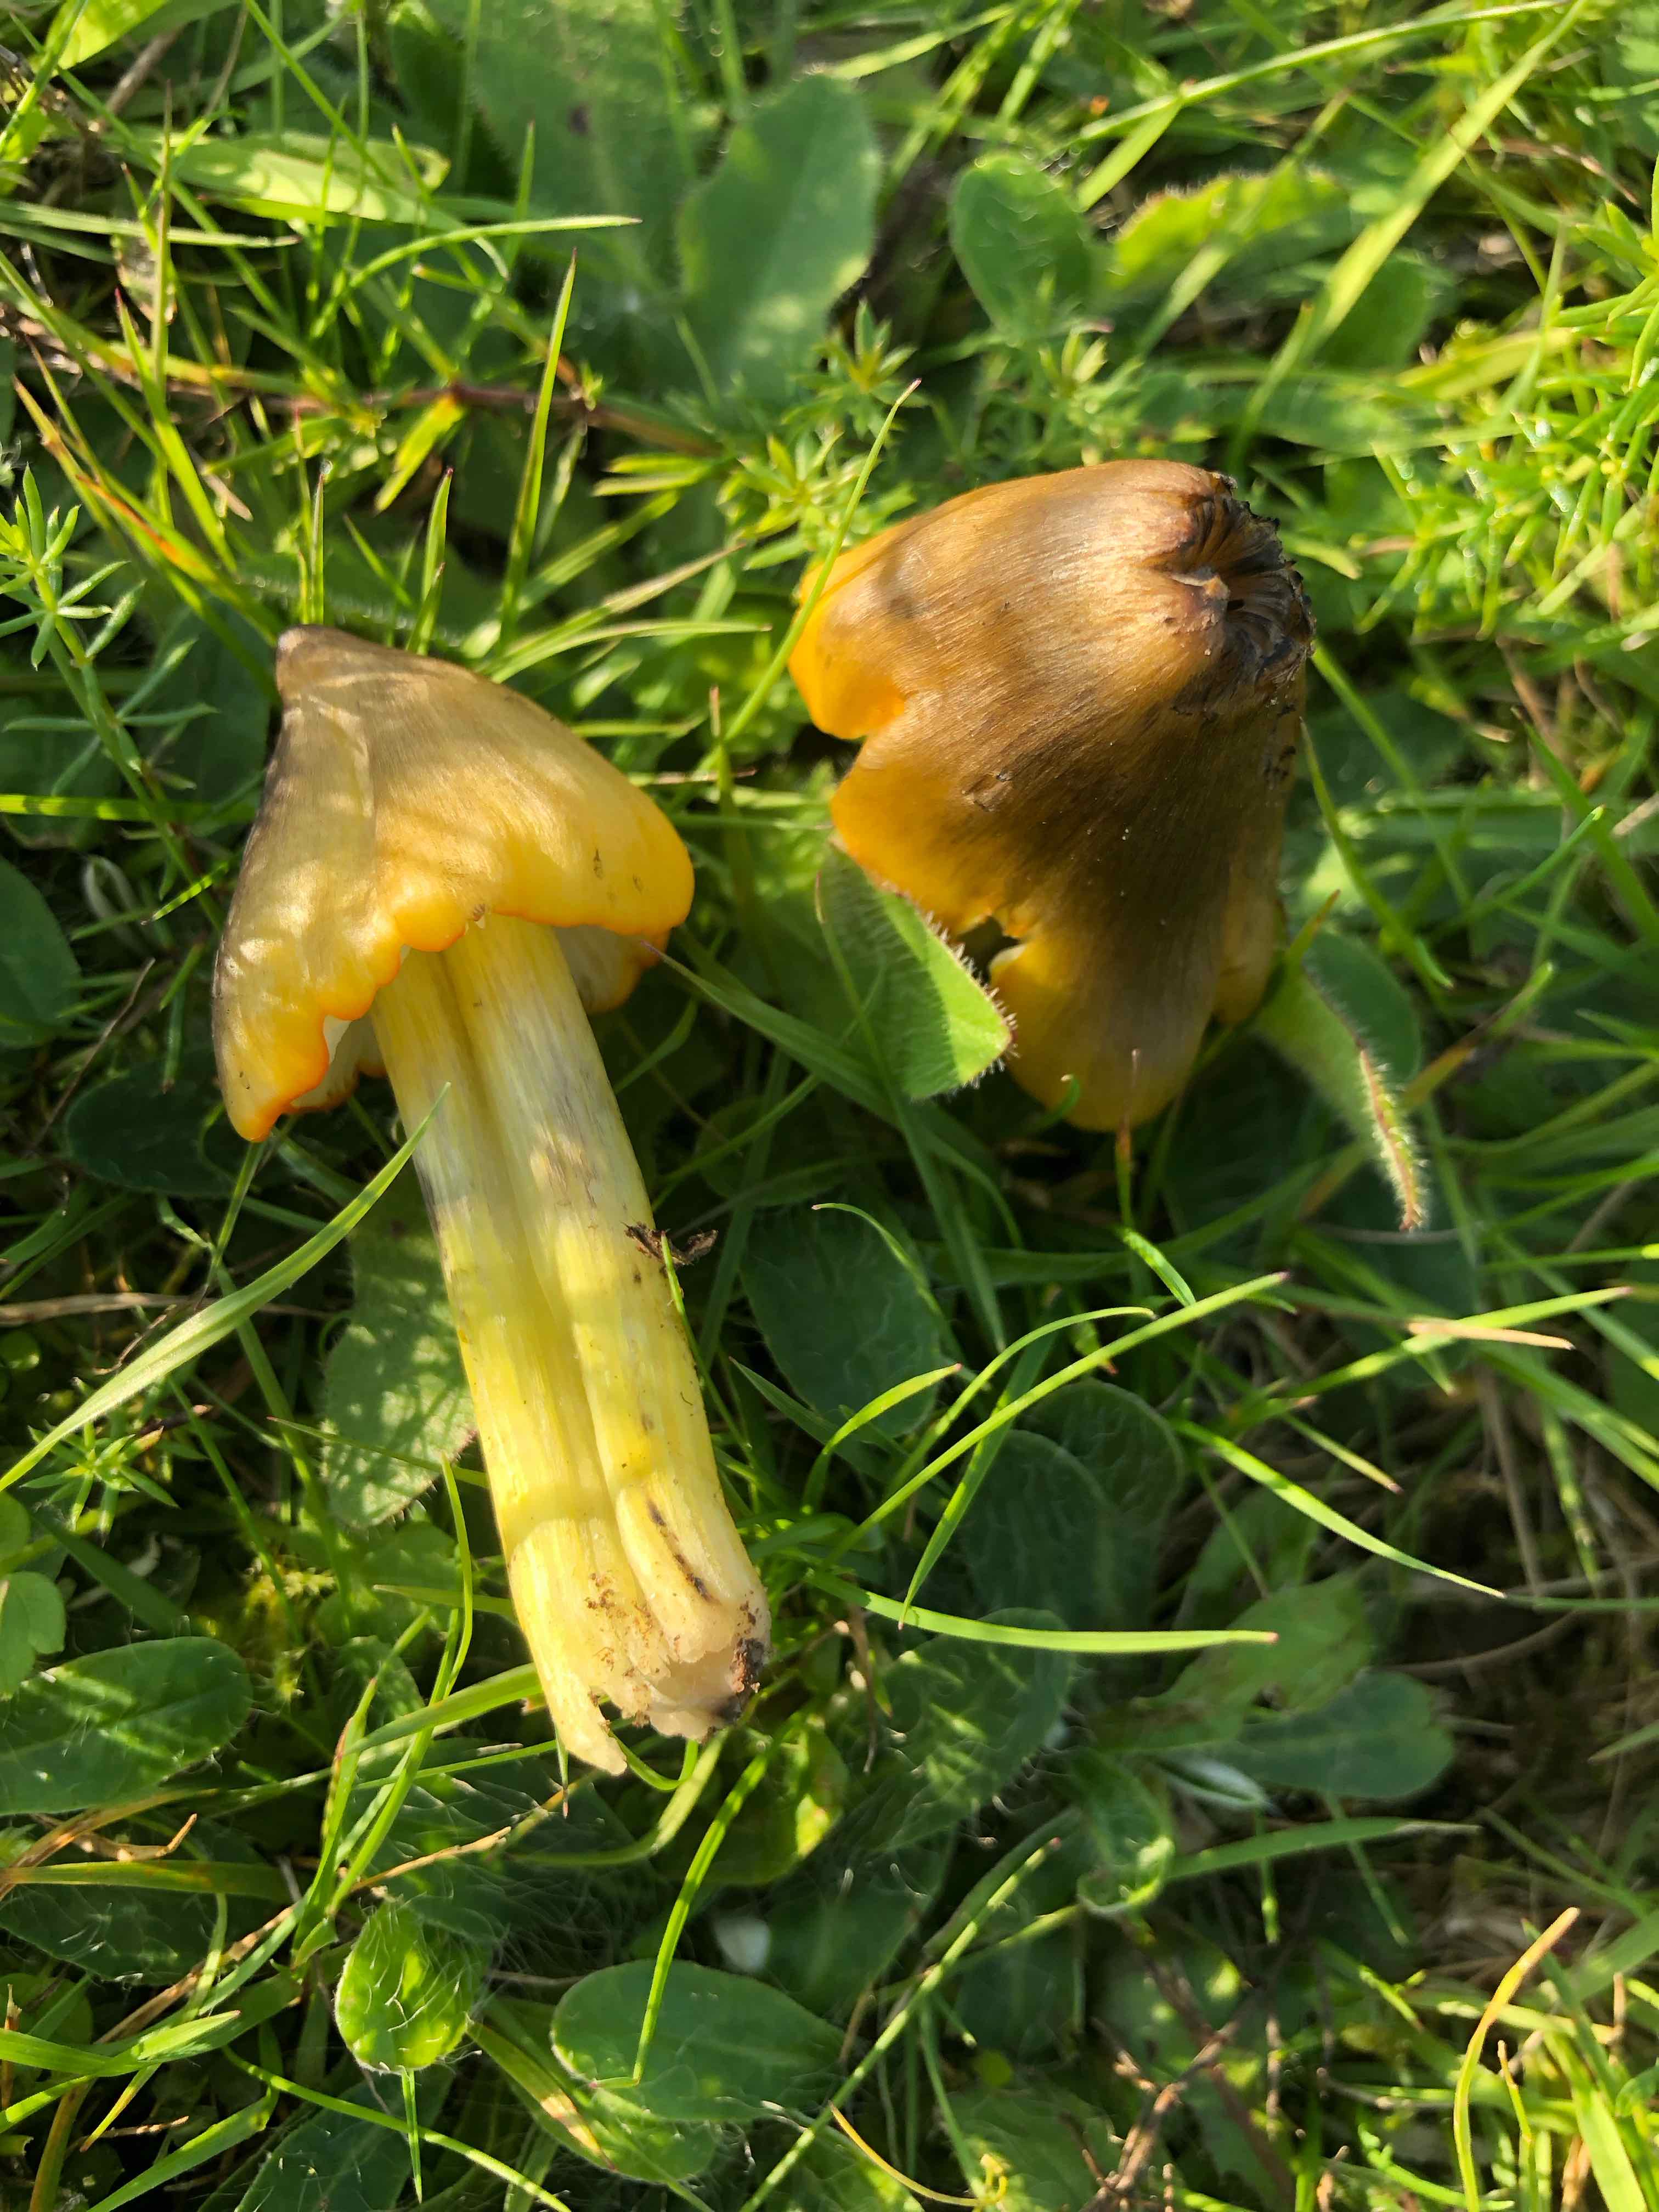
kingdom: Fungi
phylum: Basidiomycota
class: Agaricomycetes
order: Agaricales
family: Hygrophoraceae
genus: Hygrocybe
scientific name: Hygrocybe conica
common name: kegle-vokshat
